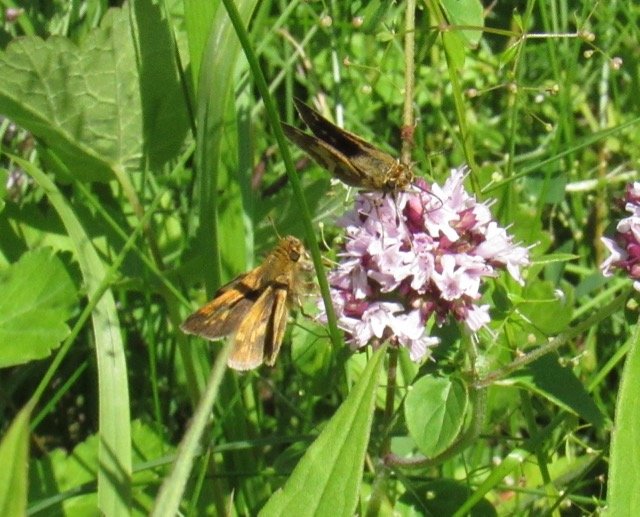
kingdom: Animalia
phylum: Arthropoda
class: Insecta
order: Lepidoptera
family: Hesperiidae
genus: Polites
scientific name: Polites coras
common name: Peck's Skipper
